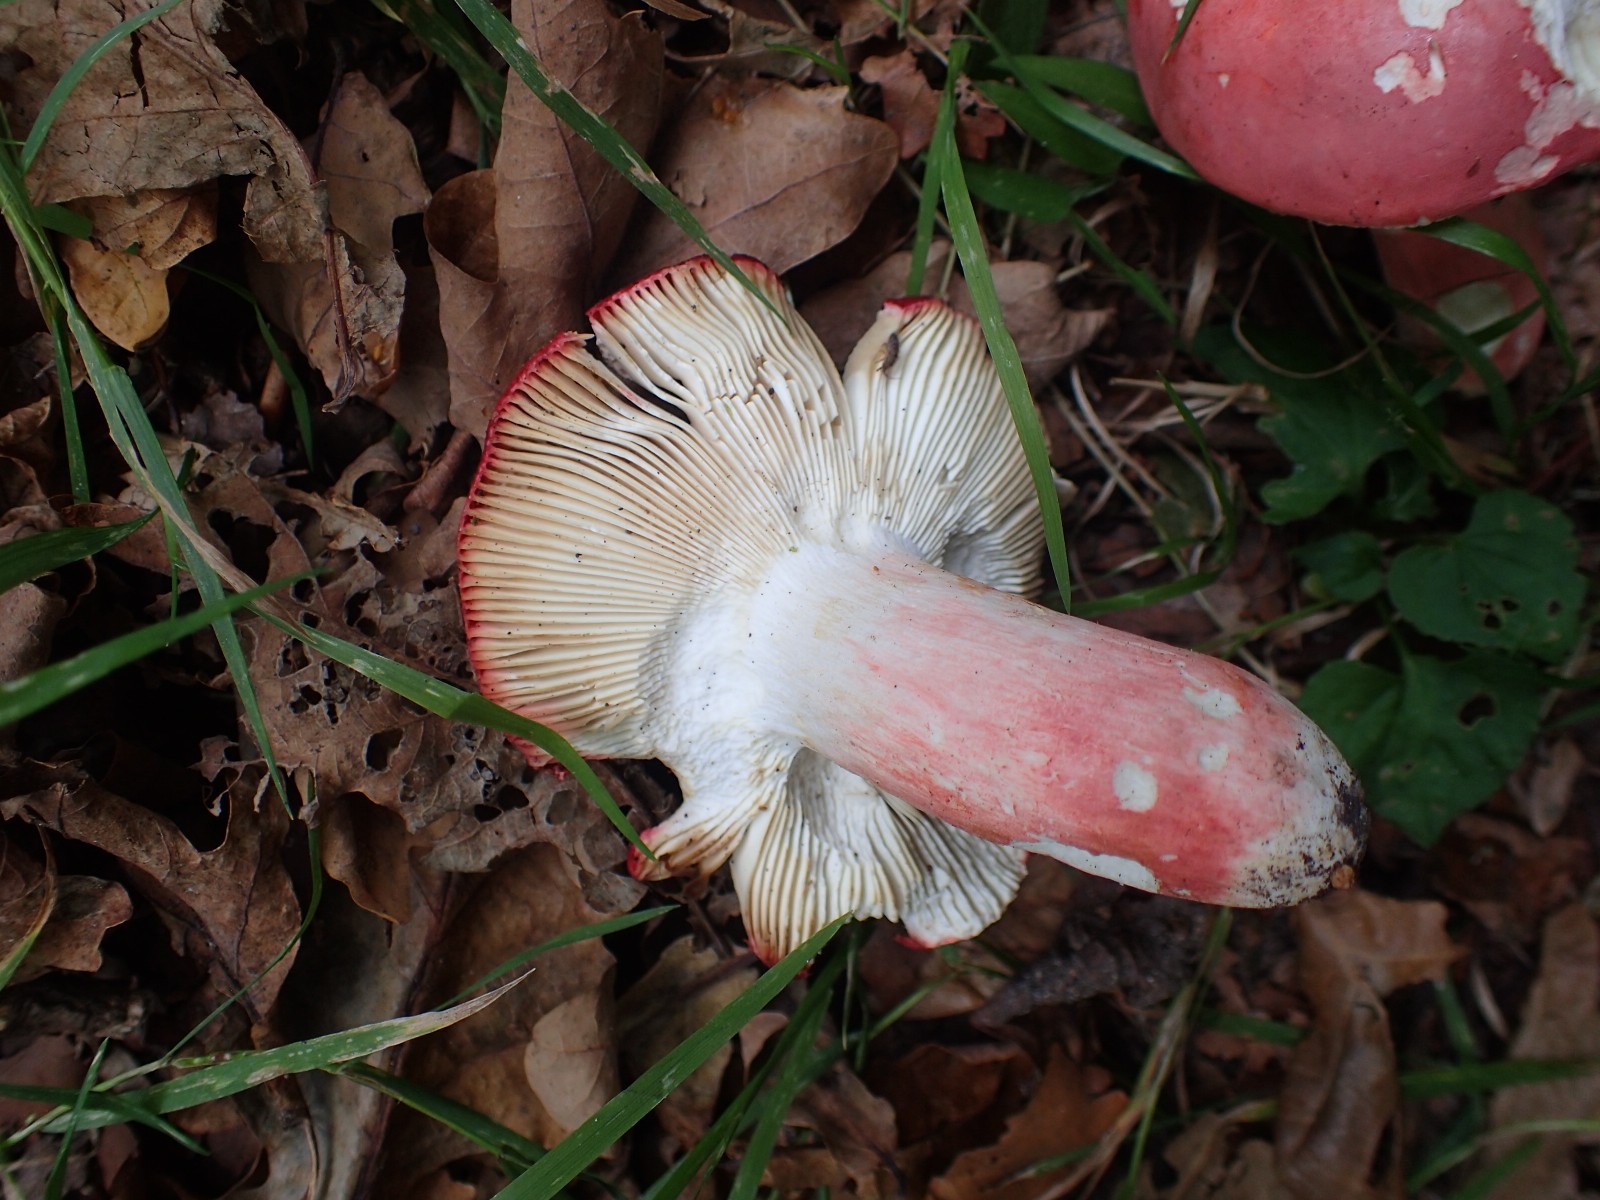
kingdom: Fungi
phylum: Basidiomycota
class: Agaricomycetes
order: Russulales
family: Russulaceae
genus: Russula
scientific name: Russula rosea
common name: fastkødet skørhat
